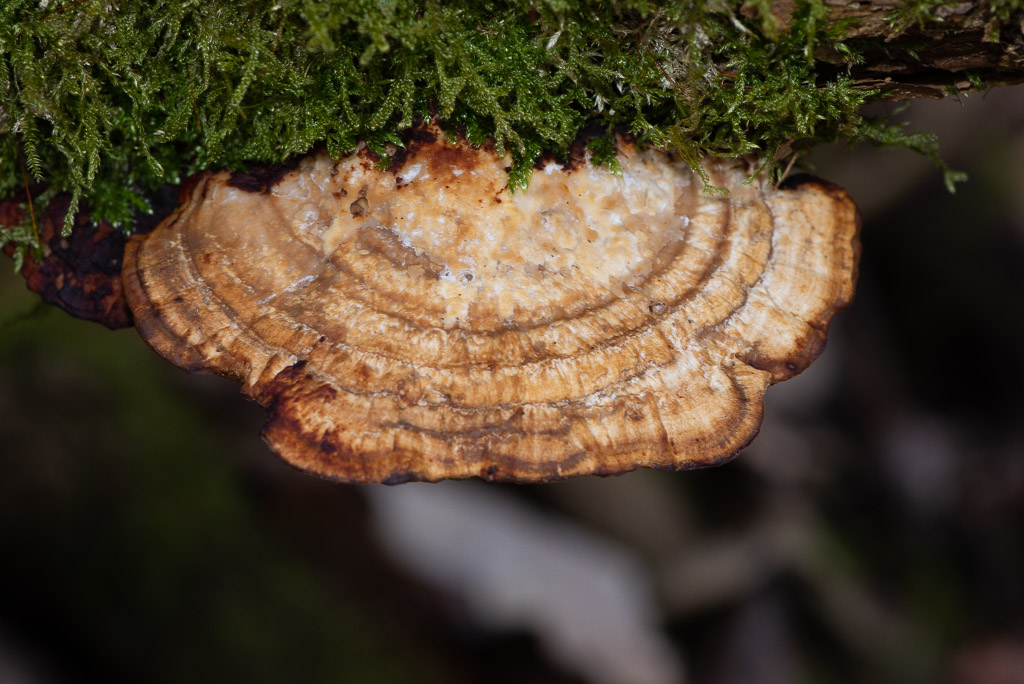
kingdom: Fungi
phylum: Basidiomycota
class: Agaricomycetes
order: Polyporales
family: Polyporaceae
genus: Daedaleopsis
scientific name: Daedaleopsis confragosa
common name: rødmende læderporesvamp
